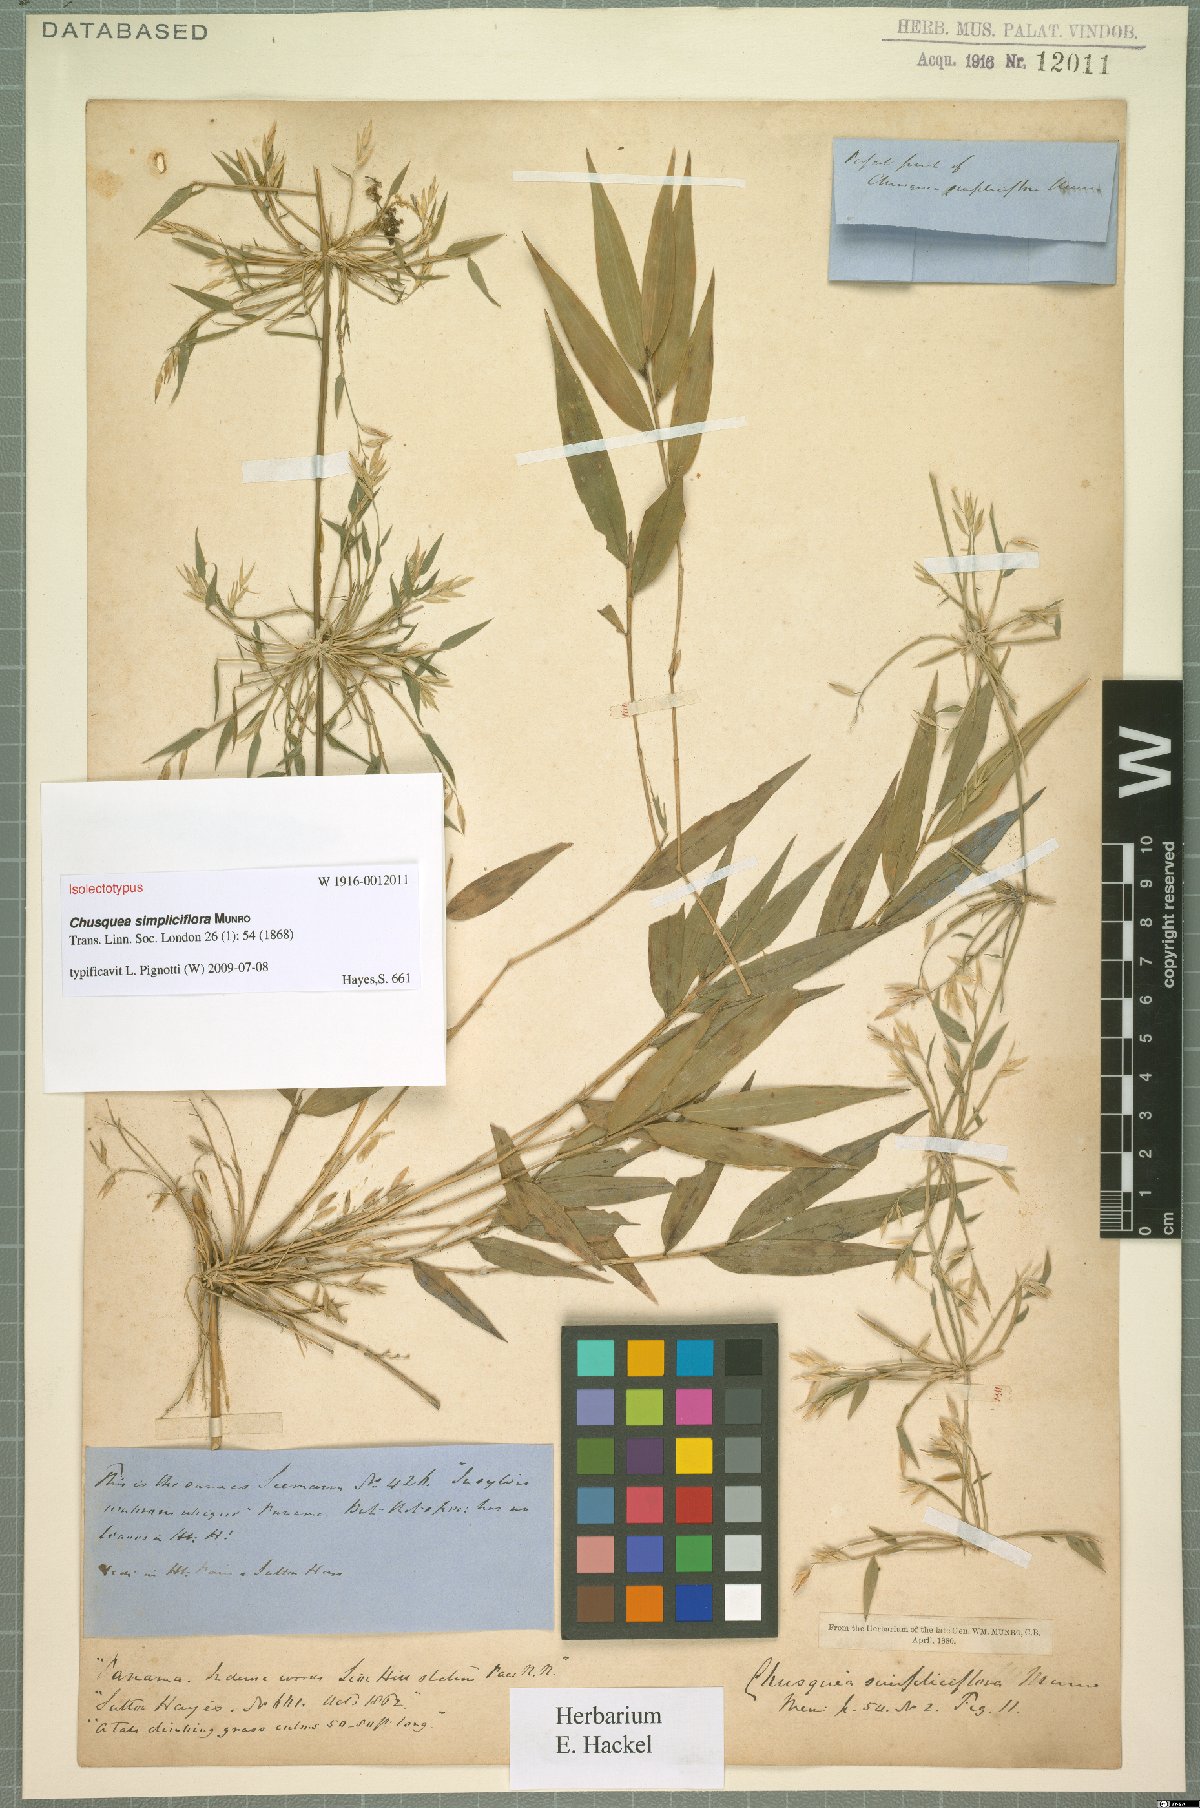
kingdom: Plantae
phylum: Tracheophyta
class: Liliopsida
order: Poales
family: Poaceae
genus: Chusquea
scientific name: Chusquea simpliciflora
